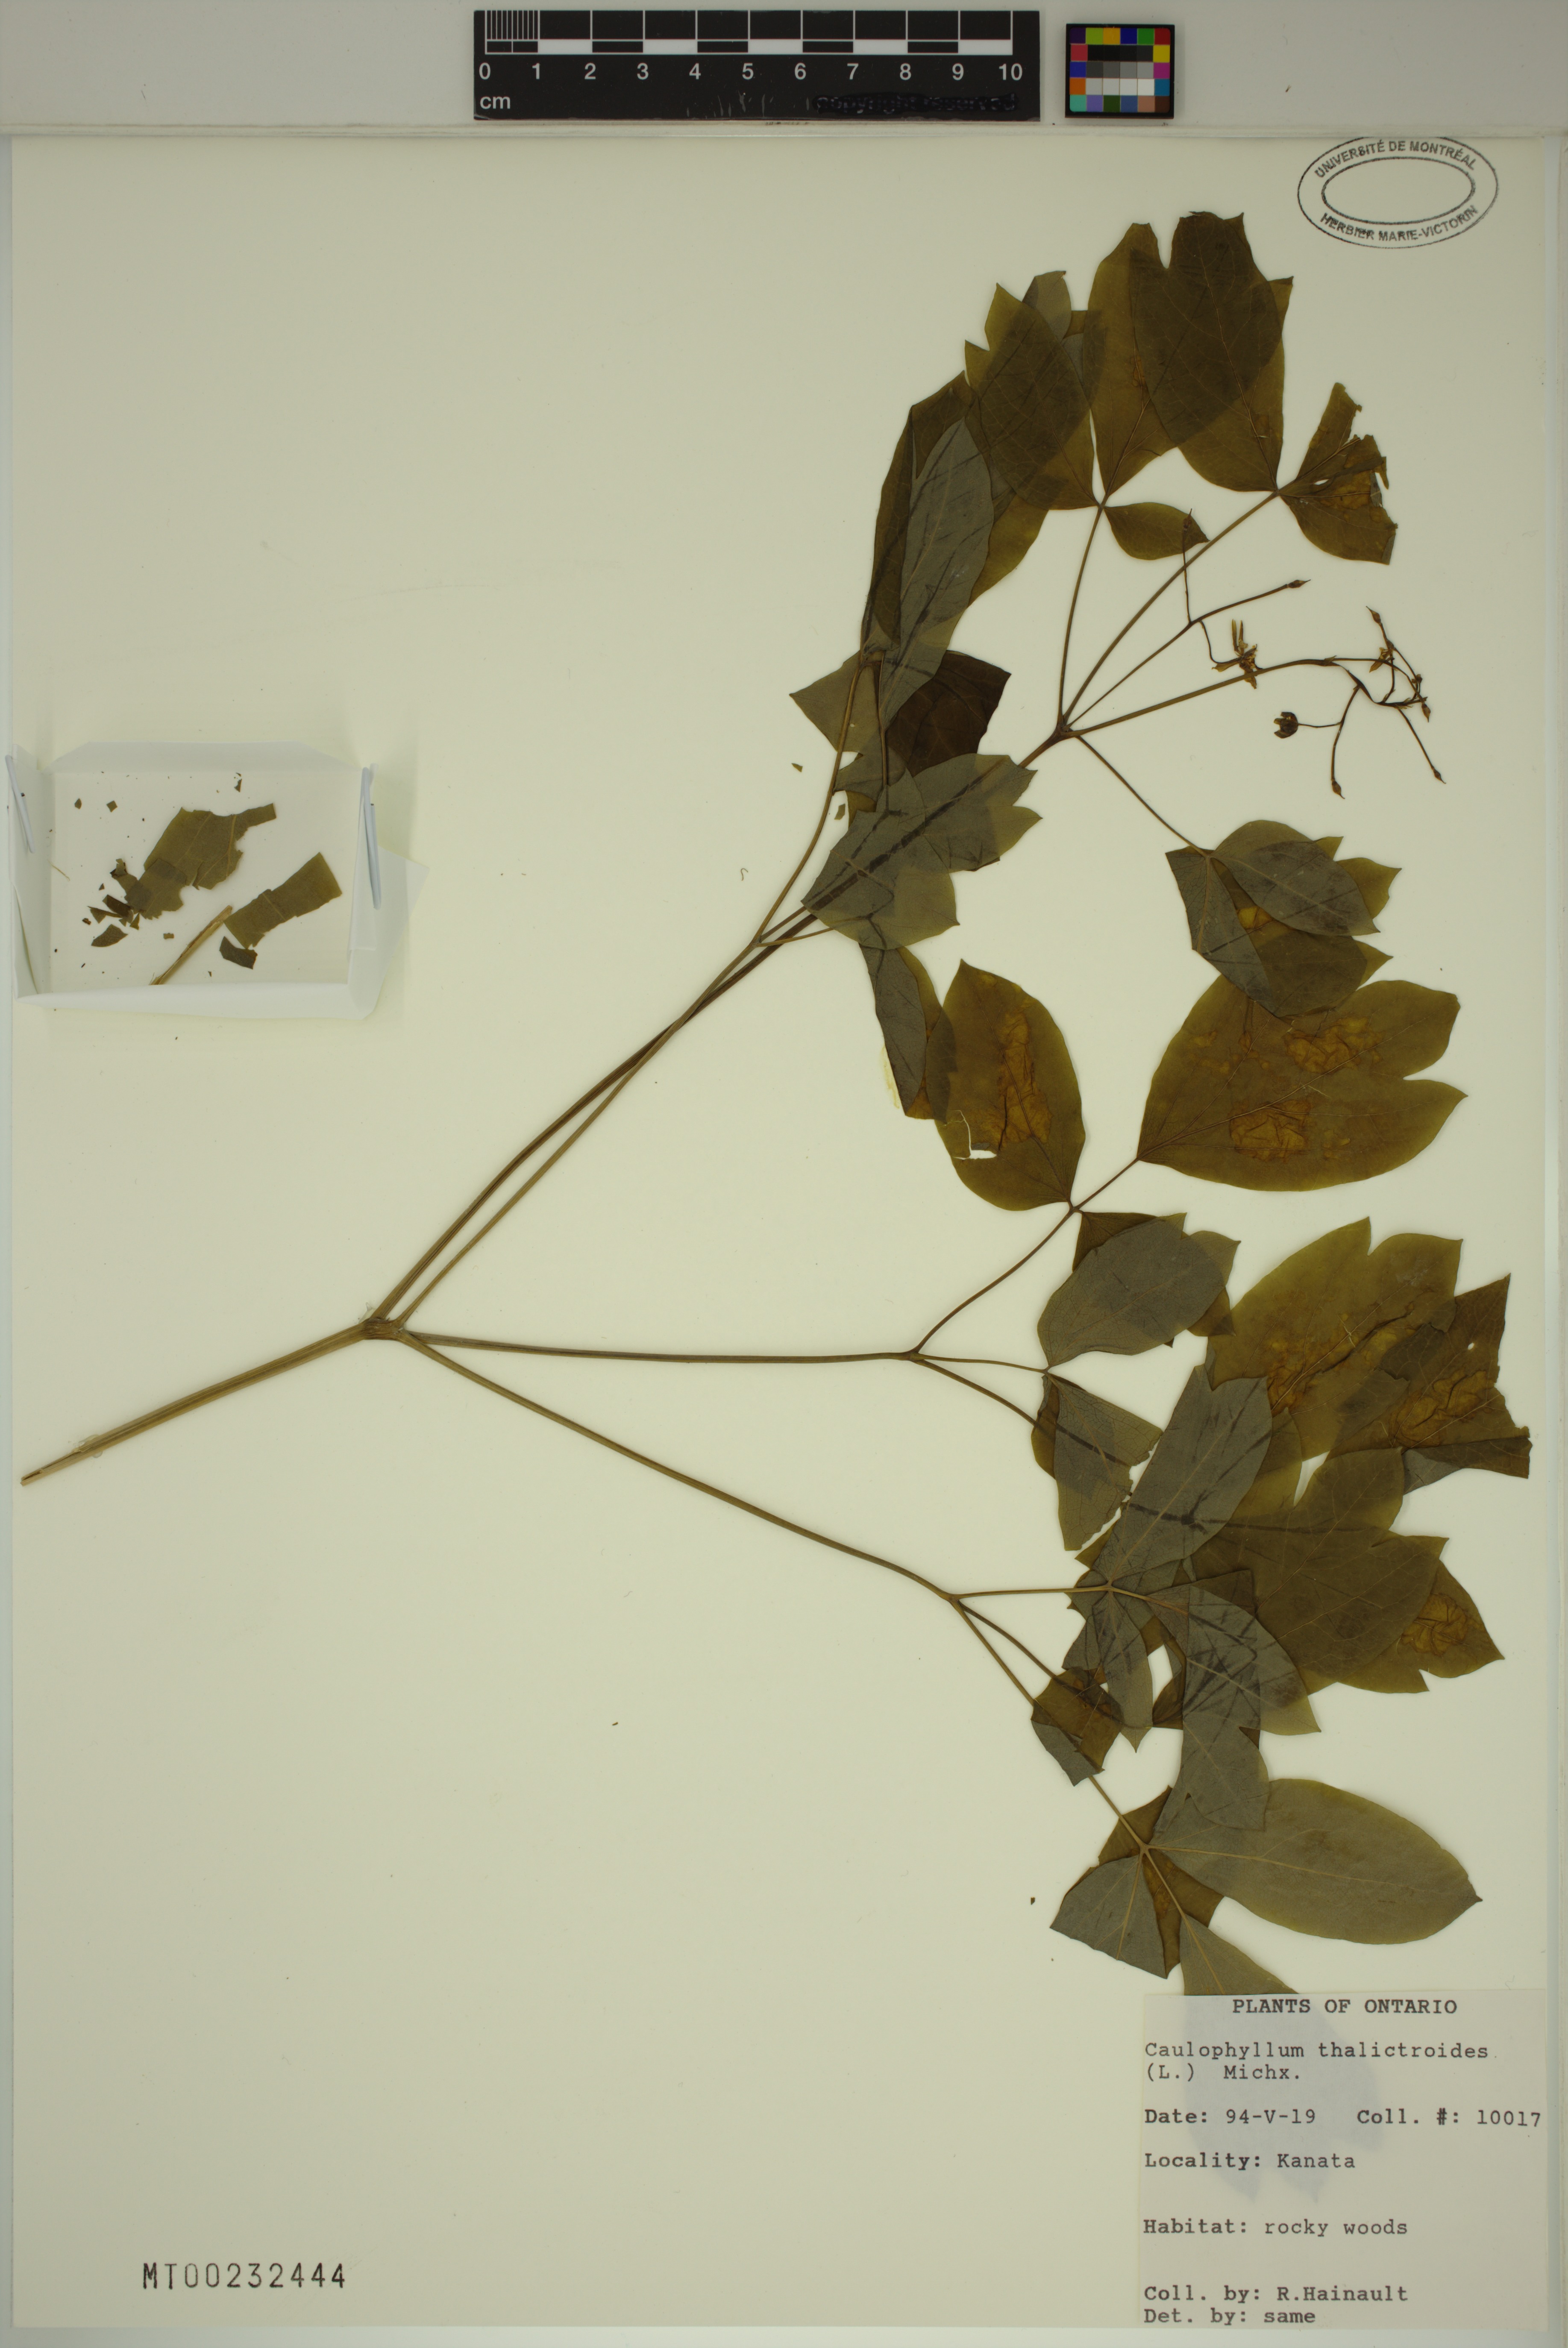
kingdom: Plantae
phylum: Tracheophyta
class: Magnoliopsida
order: Ranunculales
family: Berberidaceae
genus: Caulophyllum
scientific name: Caulophyllum thalictroides
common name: Blue cohosh
